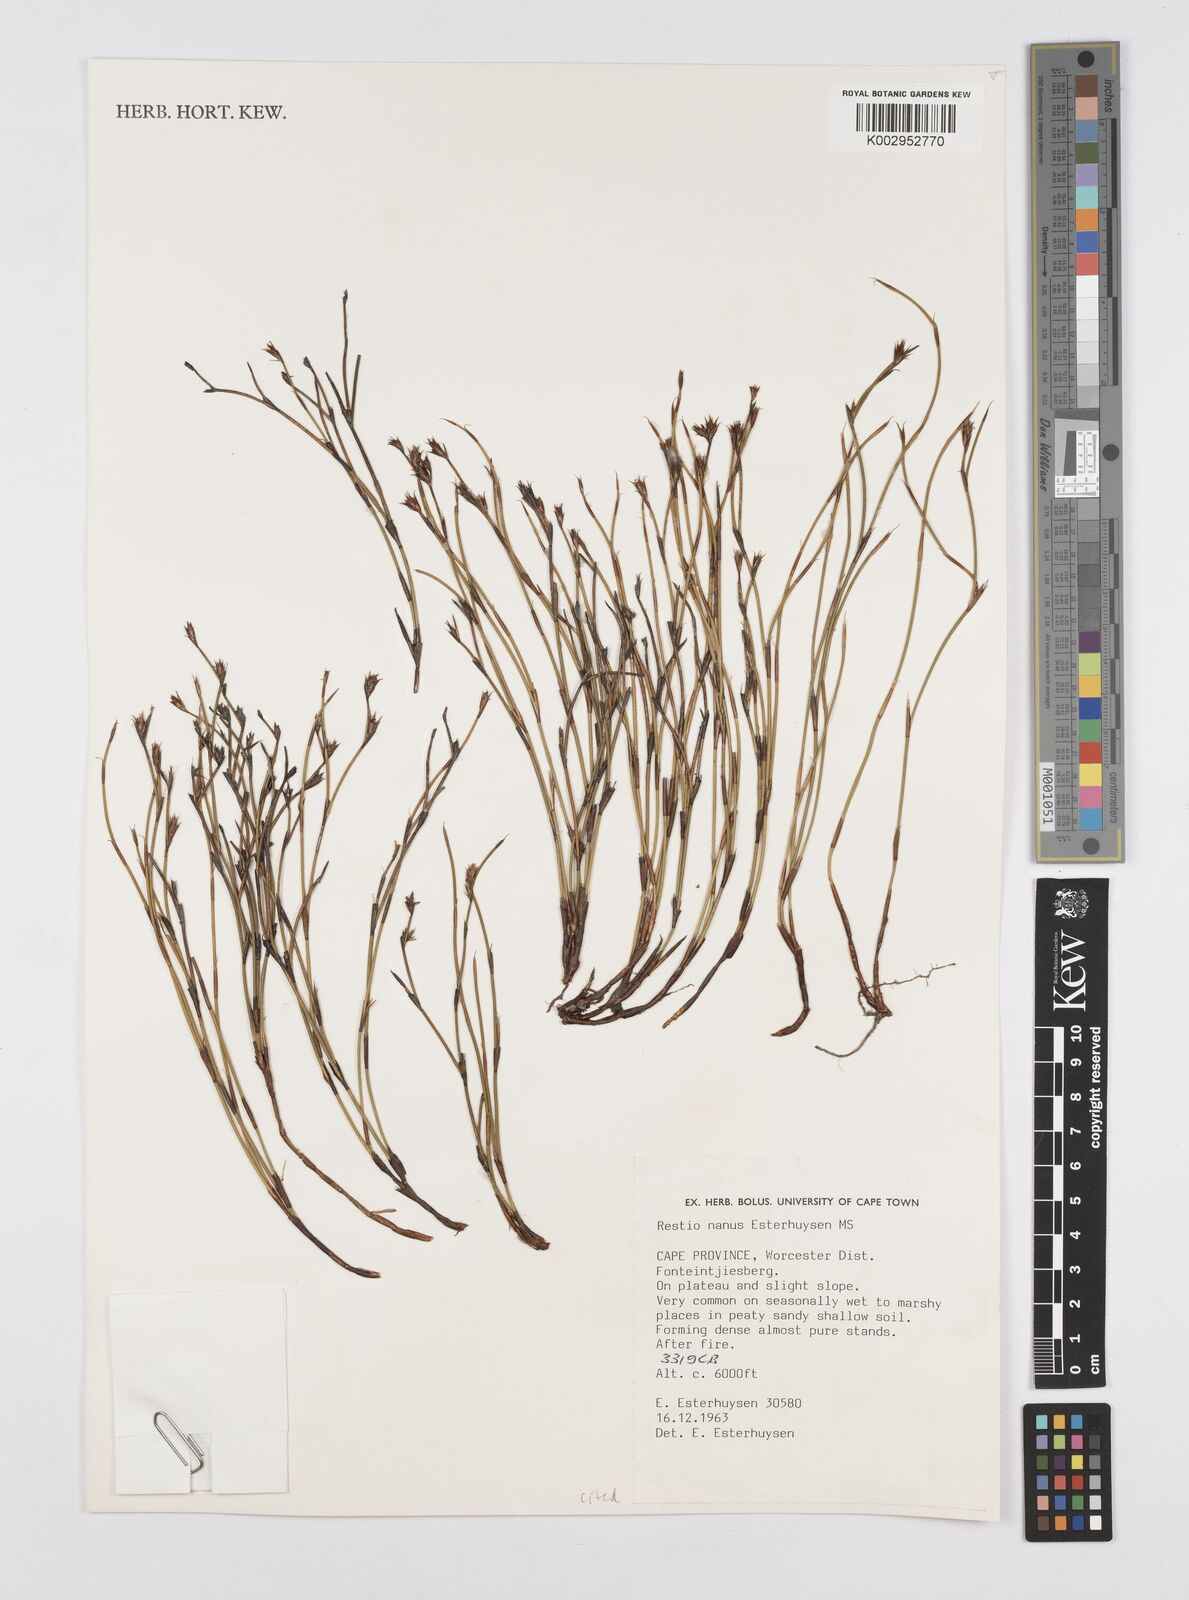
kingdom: Plantae
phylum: Tracheophyta
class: Liliopsida
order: Poales
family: Restionaceae
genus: Restio
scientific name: Restio nanus
